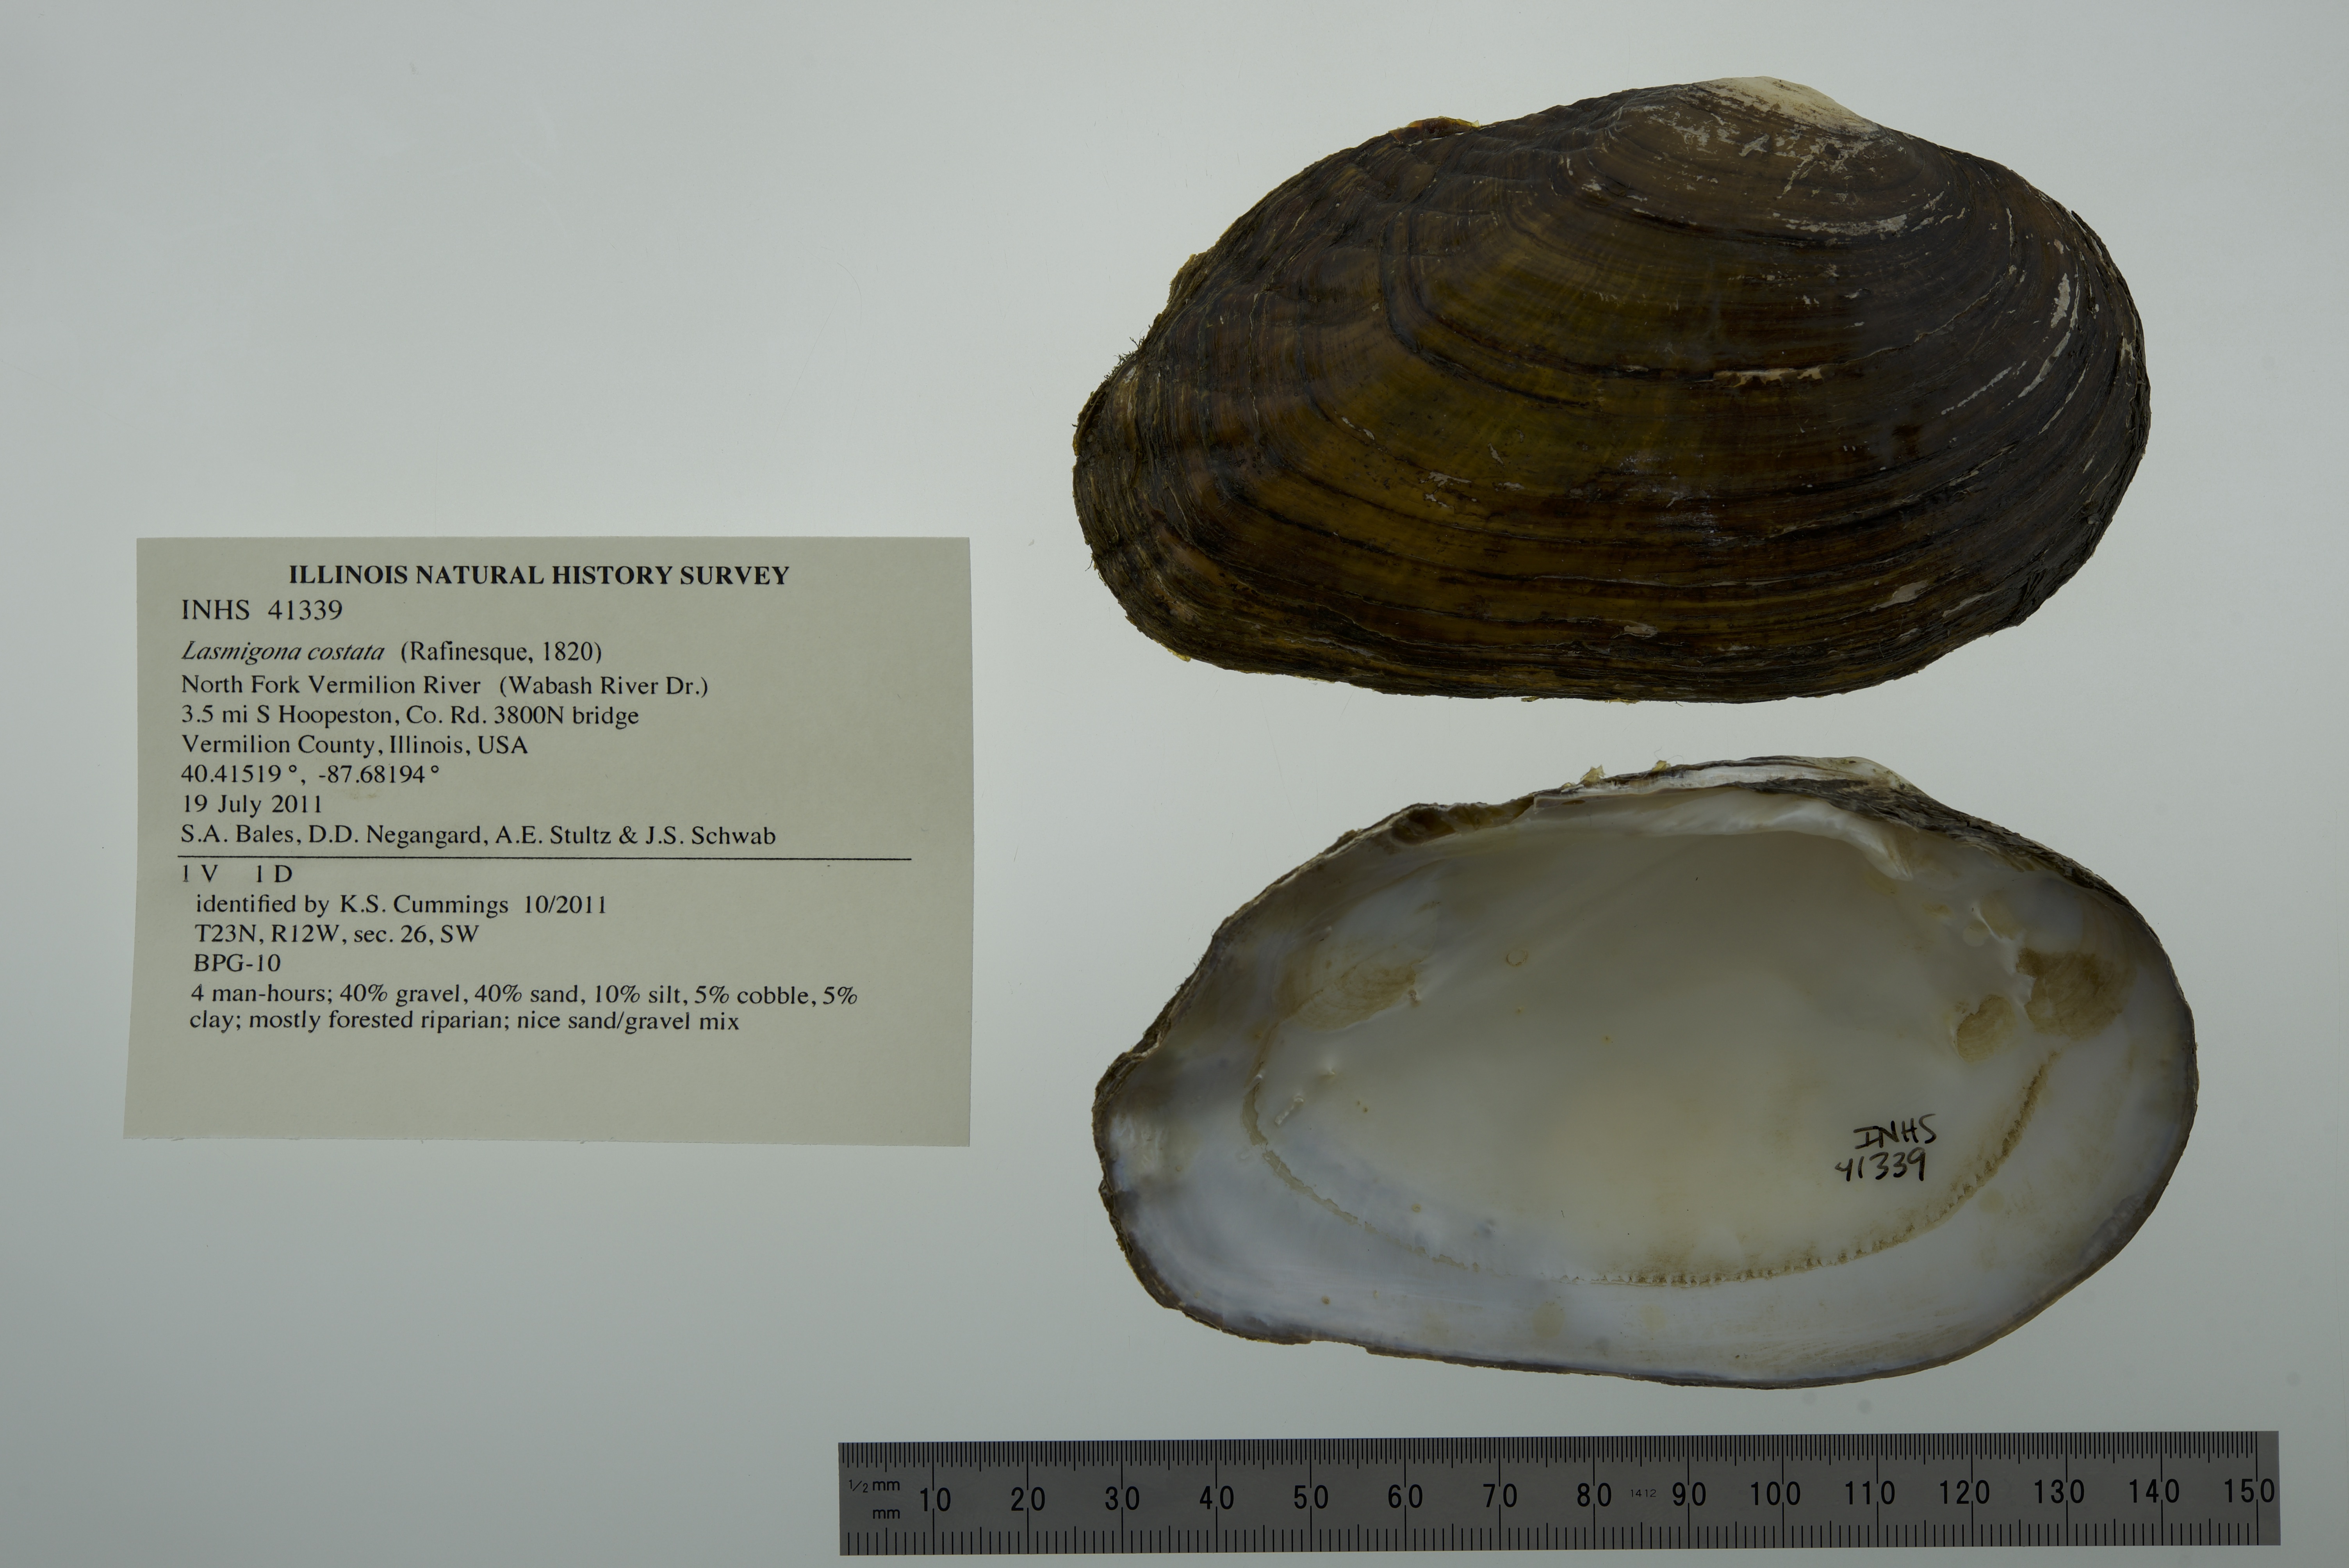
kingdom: Animalia
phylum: Mollusca
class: Bivalvia
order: Unionida
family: Unionidae
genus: Lasmigona
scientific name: Lasmigona costata
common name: Flutedshell
